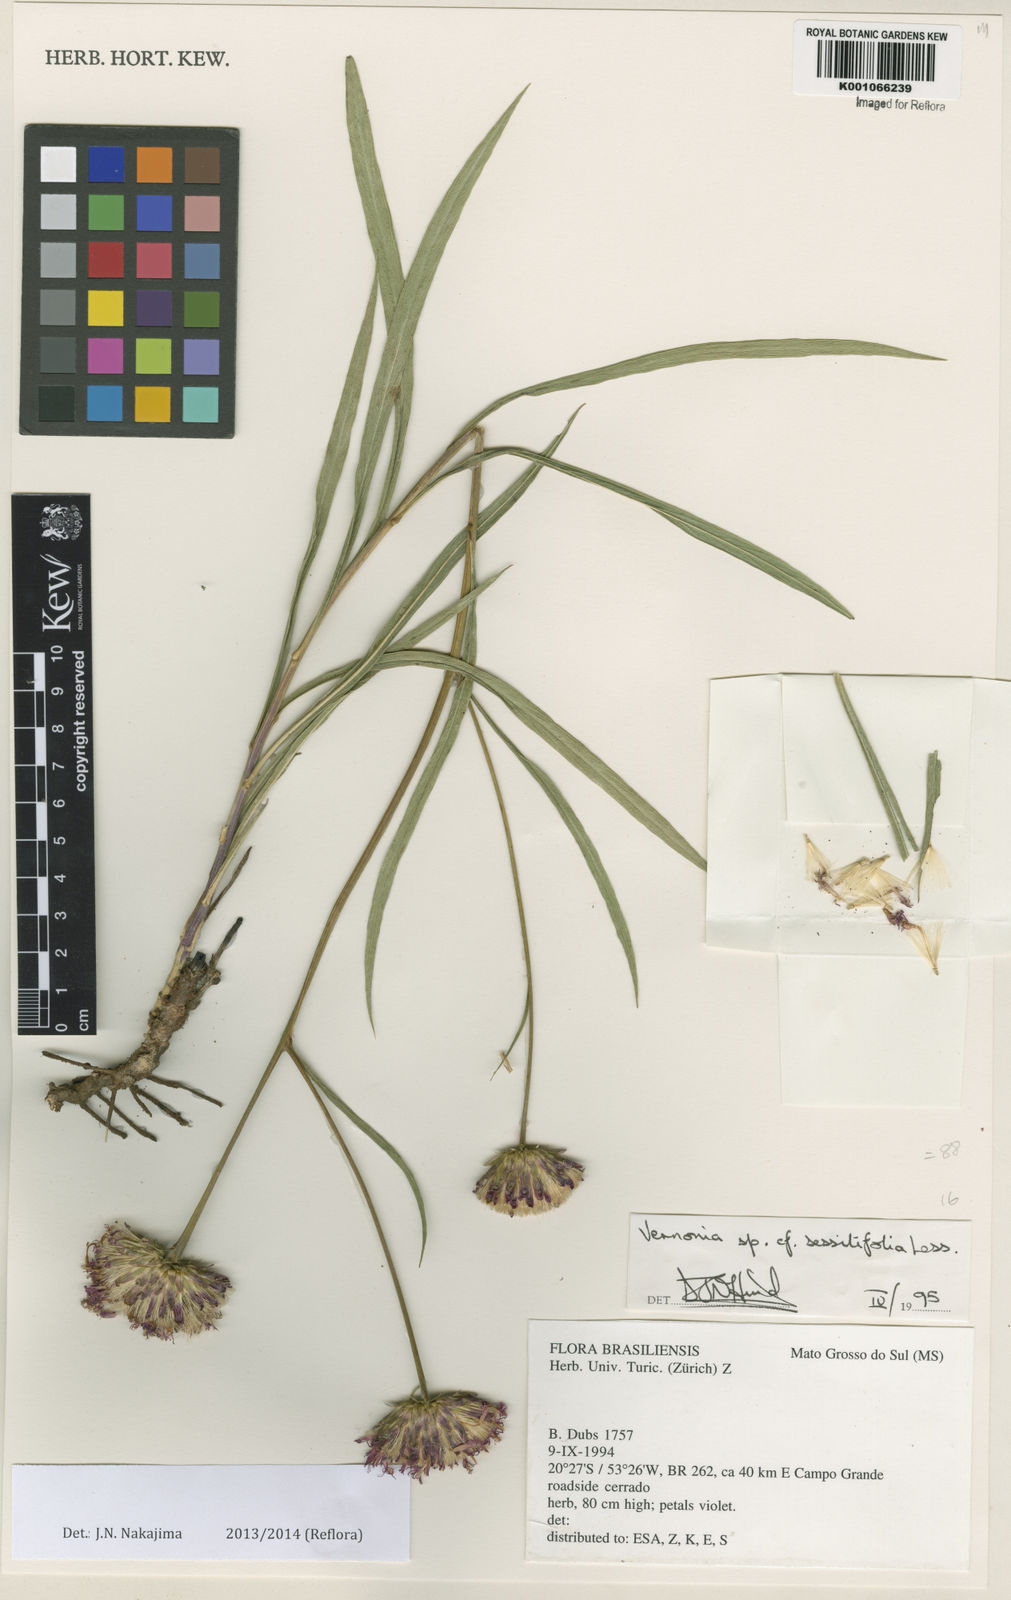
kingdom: Plantae
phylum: Tracheophyta
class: Magnoliopsida
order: Asterales
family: Asteraceae
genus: Lepidaploa
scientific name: Lepidaploa remotiflora
